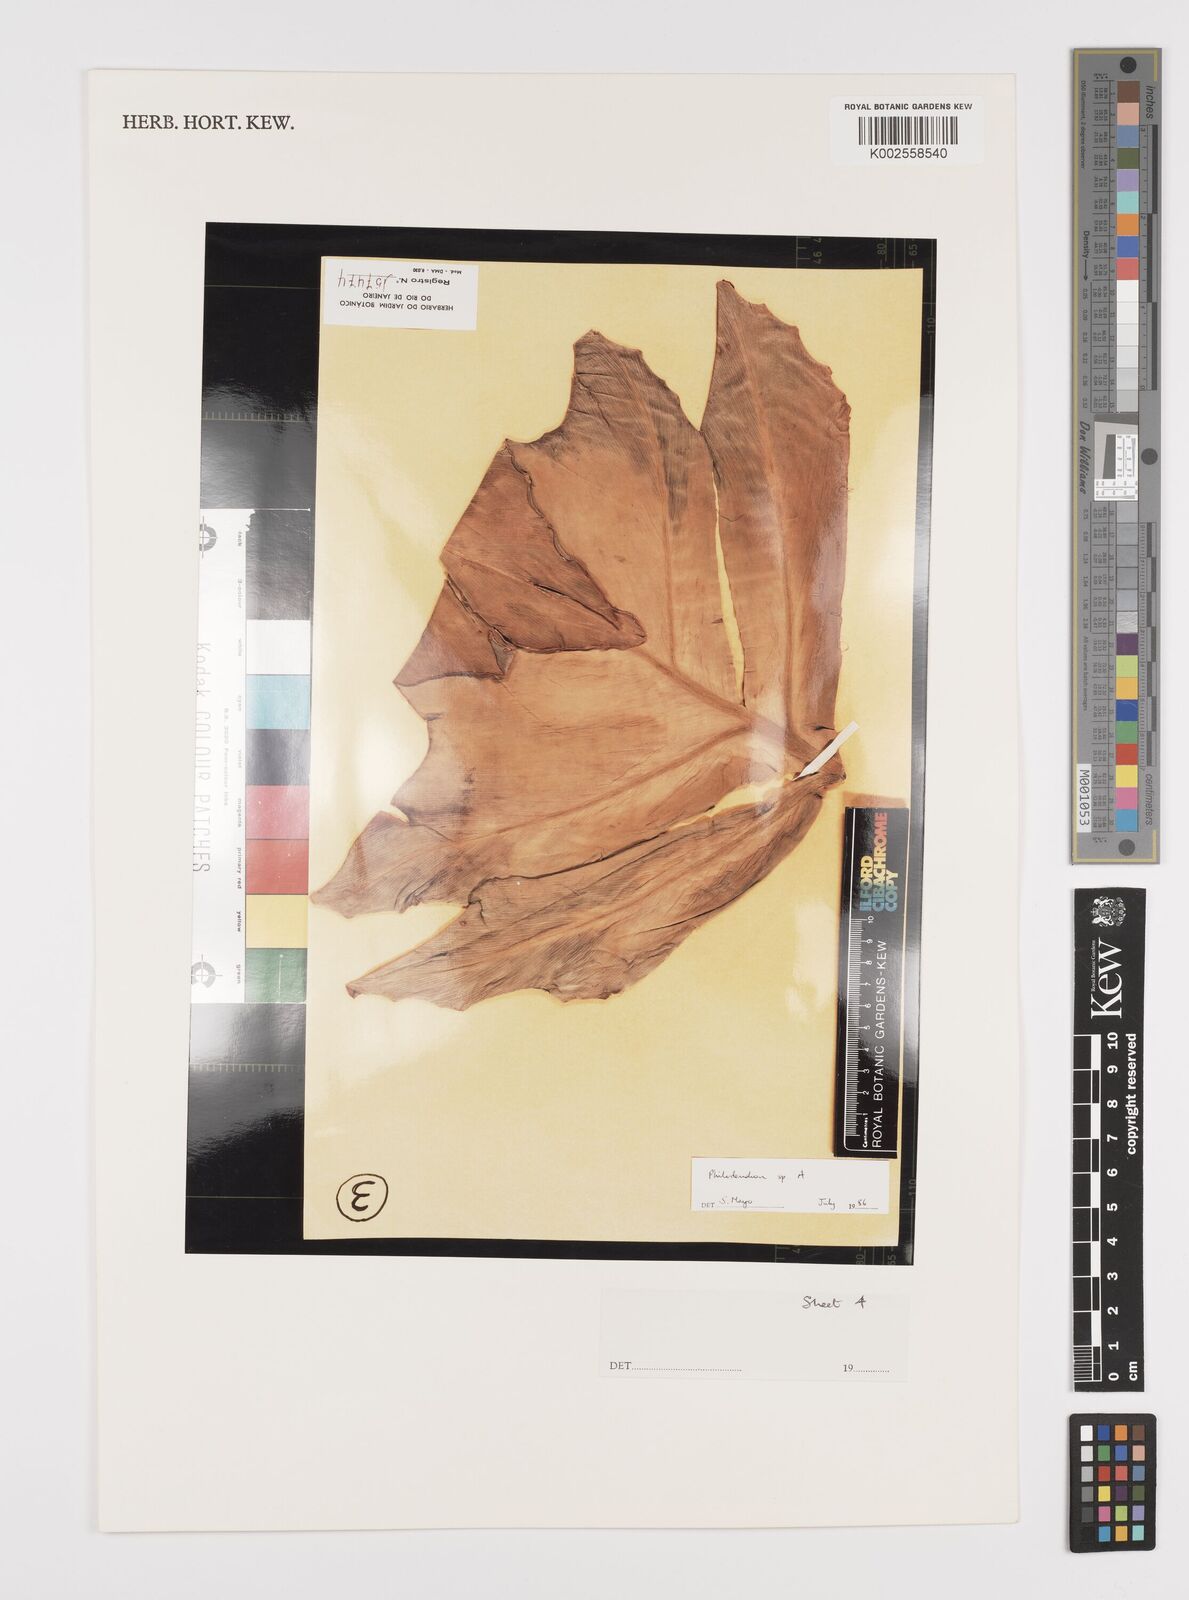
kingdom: Plantae
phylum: Tracheophyta
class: Liliopsida
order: Alismatales
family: Araceae
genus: Philodendron
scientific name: Philodendron
